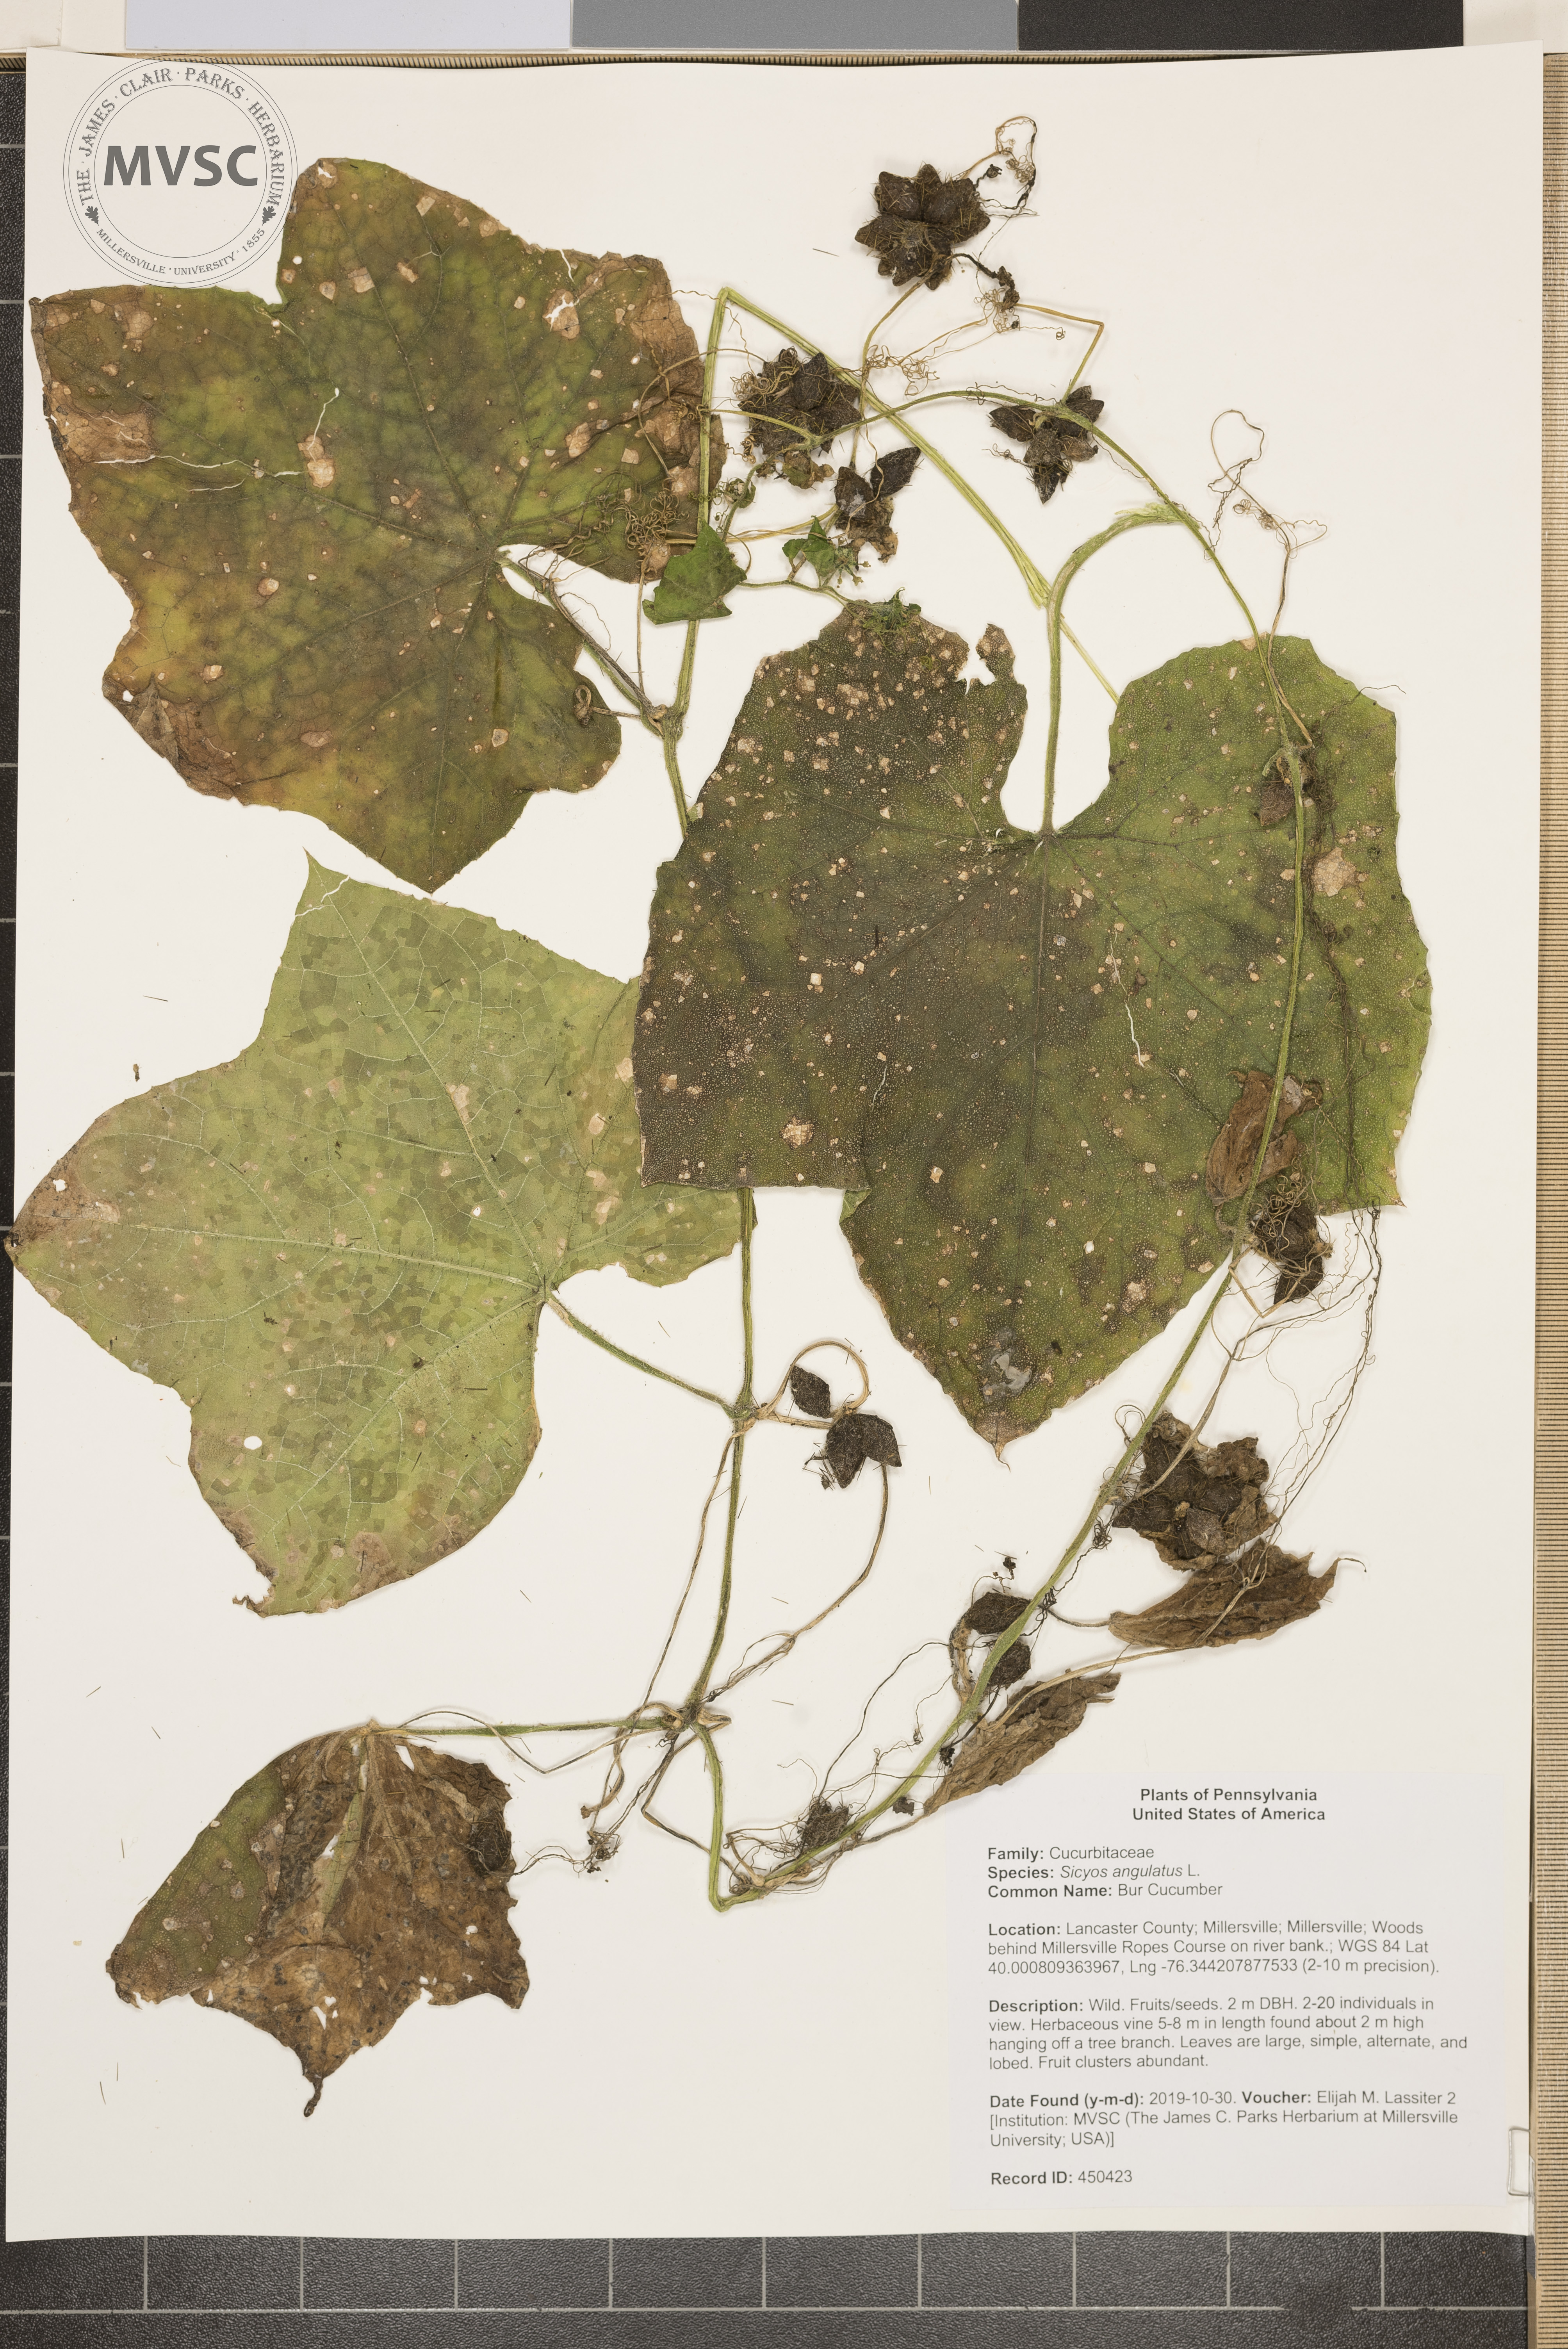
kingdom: Plantae
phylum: Tracheophyta
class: Magnoliopsida
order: Cucurbitales
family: Cucurbitaceae
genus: Sicyos
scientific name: Sicyos angulatus
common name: Bur Cucumber
